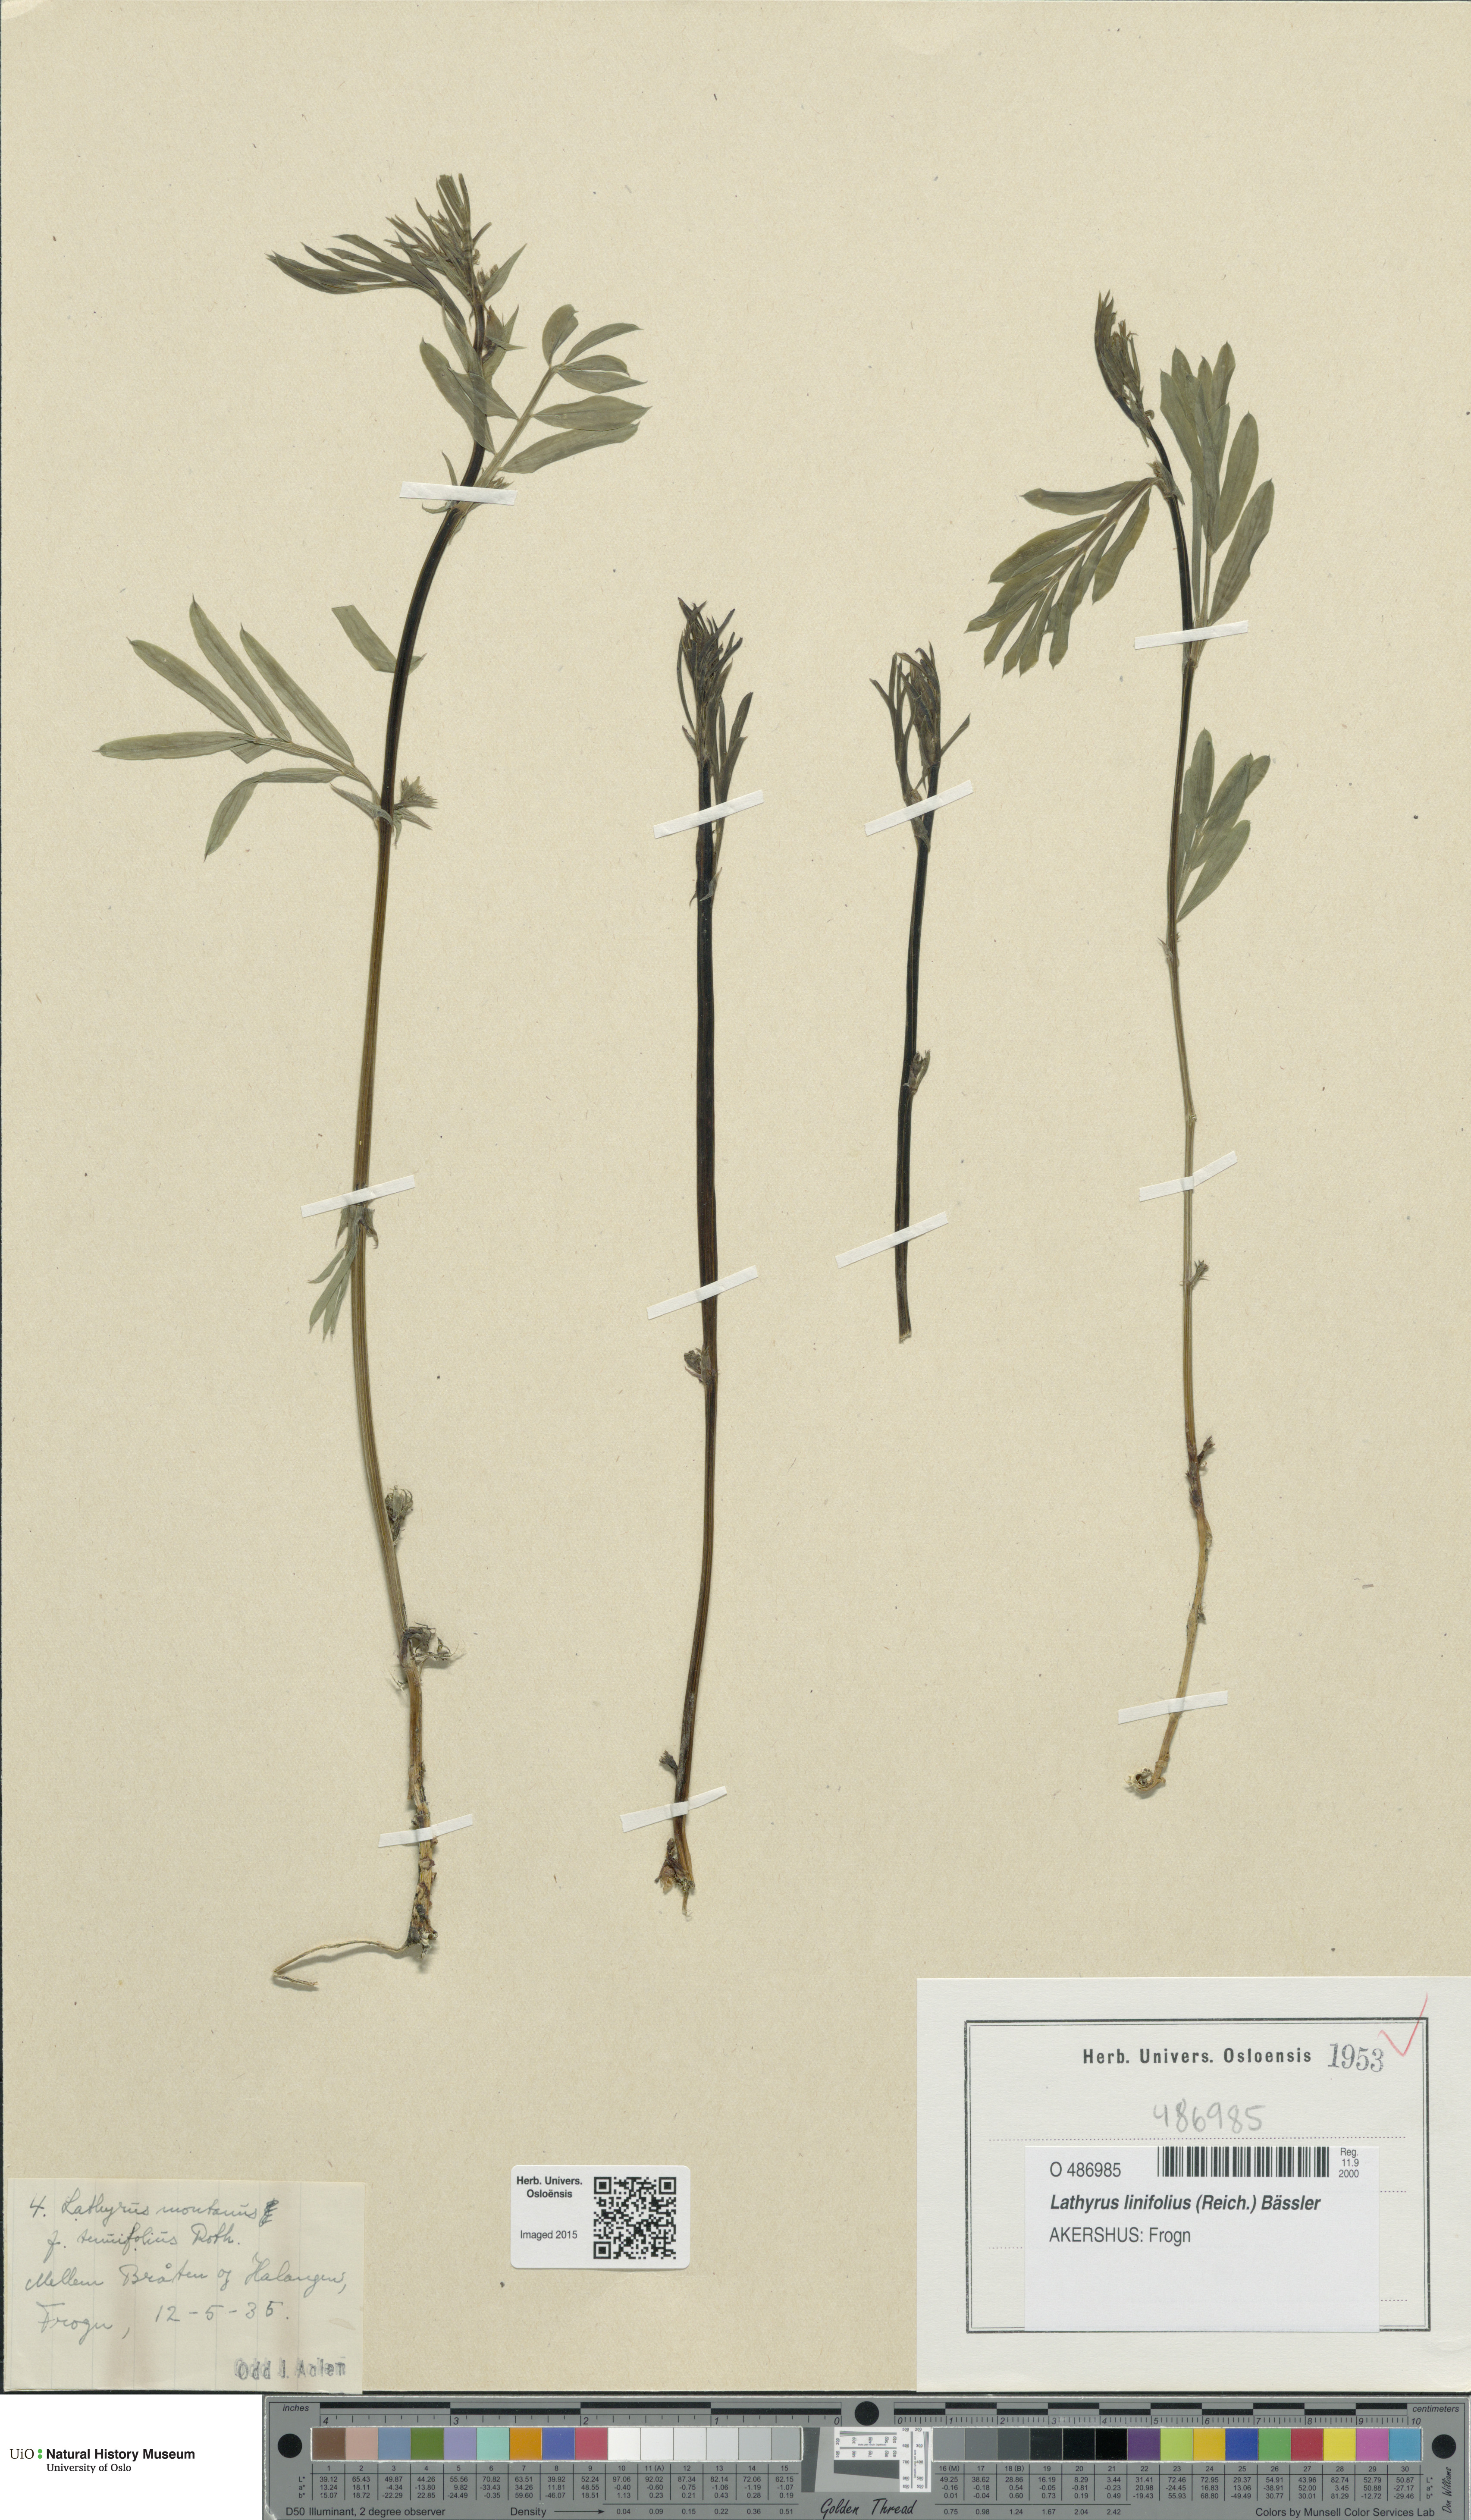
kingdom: Plantae
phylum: Tracheophyta
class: Magnoliopsida
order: Fabales
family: Fabaceae
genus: Lathyrus
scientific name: Lathyrus linifolius
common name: Bitter-vetch
